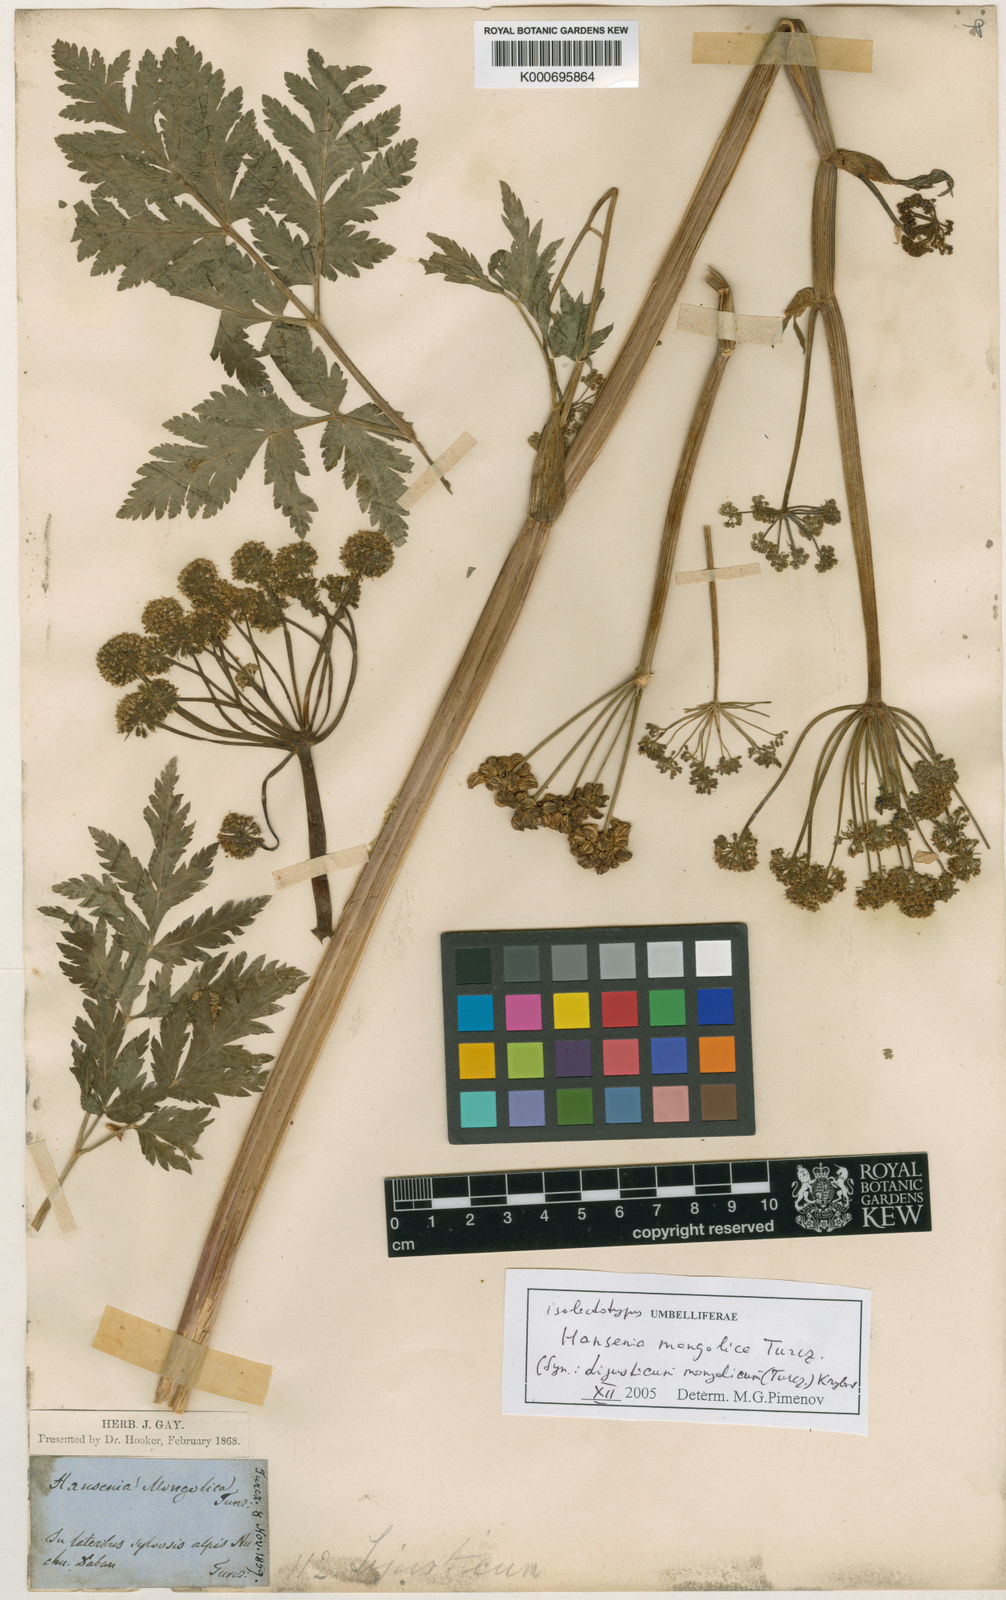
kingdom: Plantae
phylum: Tracheophyta
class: Magnoliopsida
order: Apiales
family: Apiaceae
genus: Hansenia
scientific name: Hansenia mongholica
